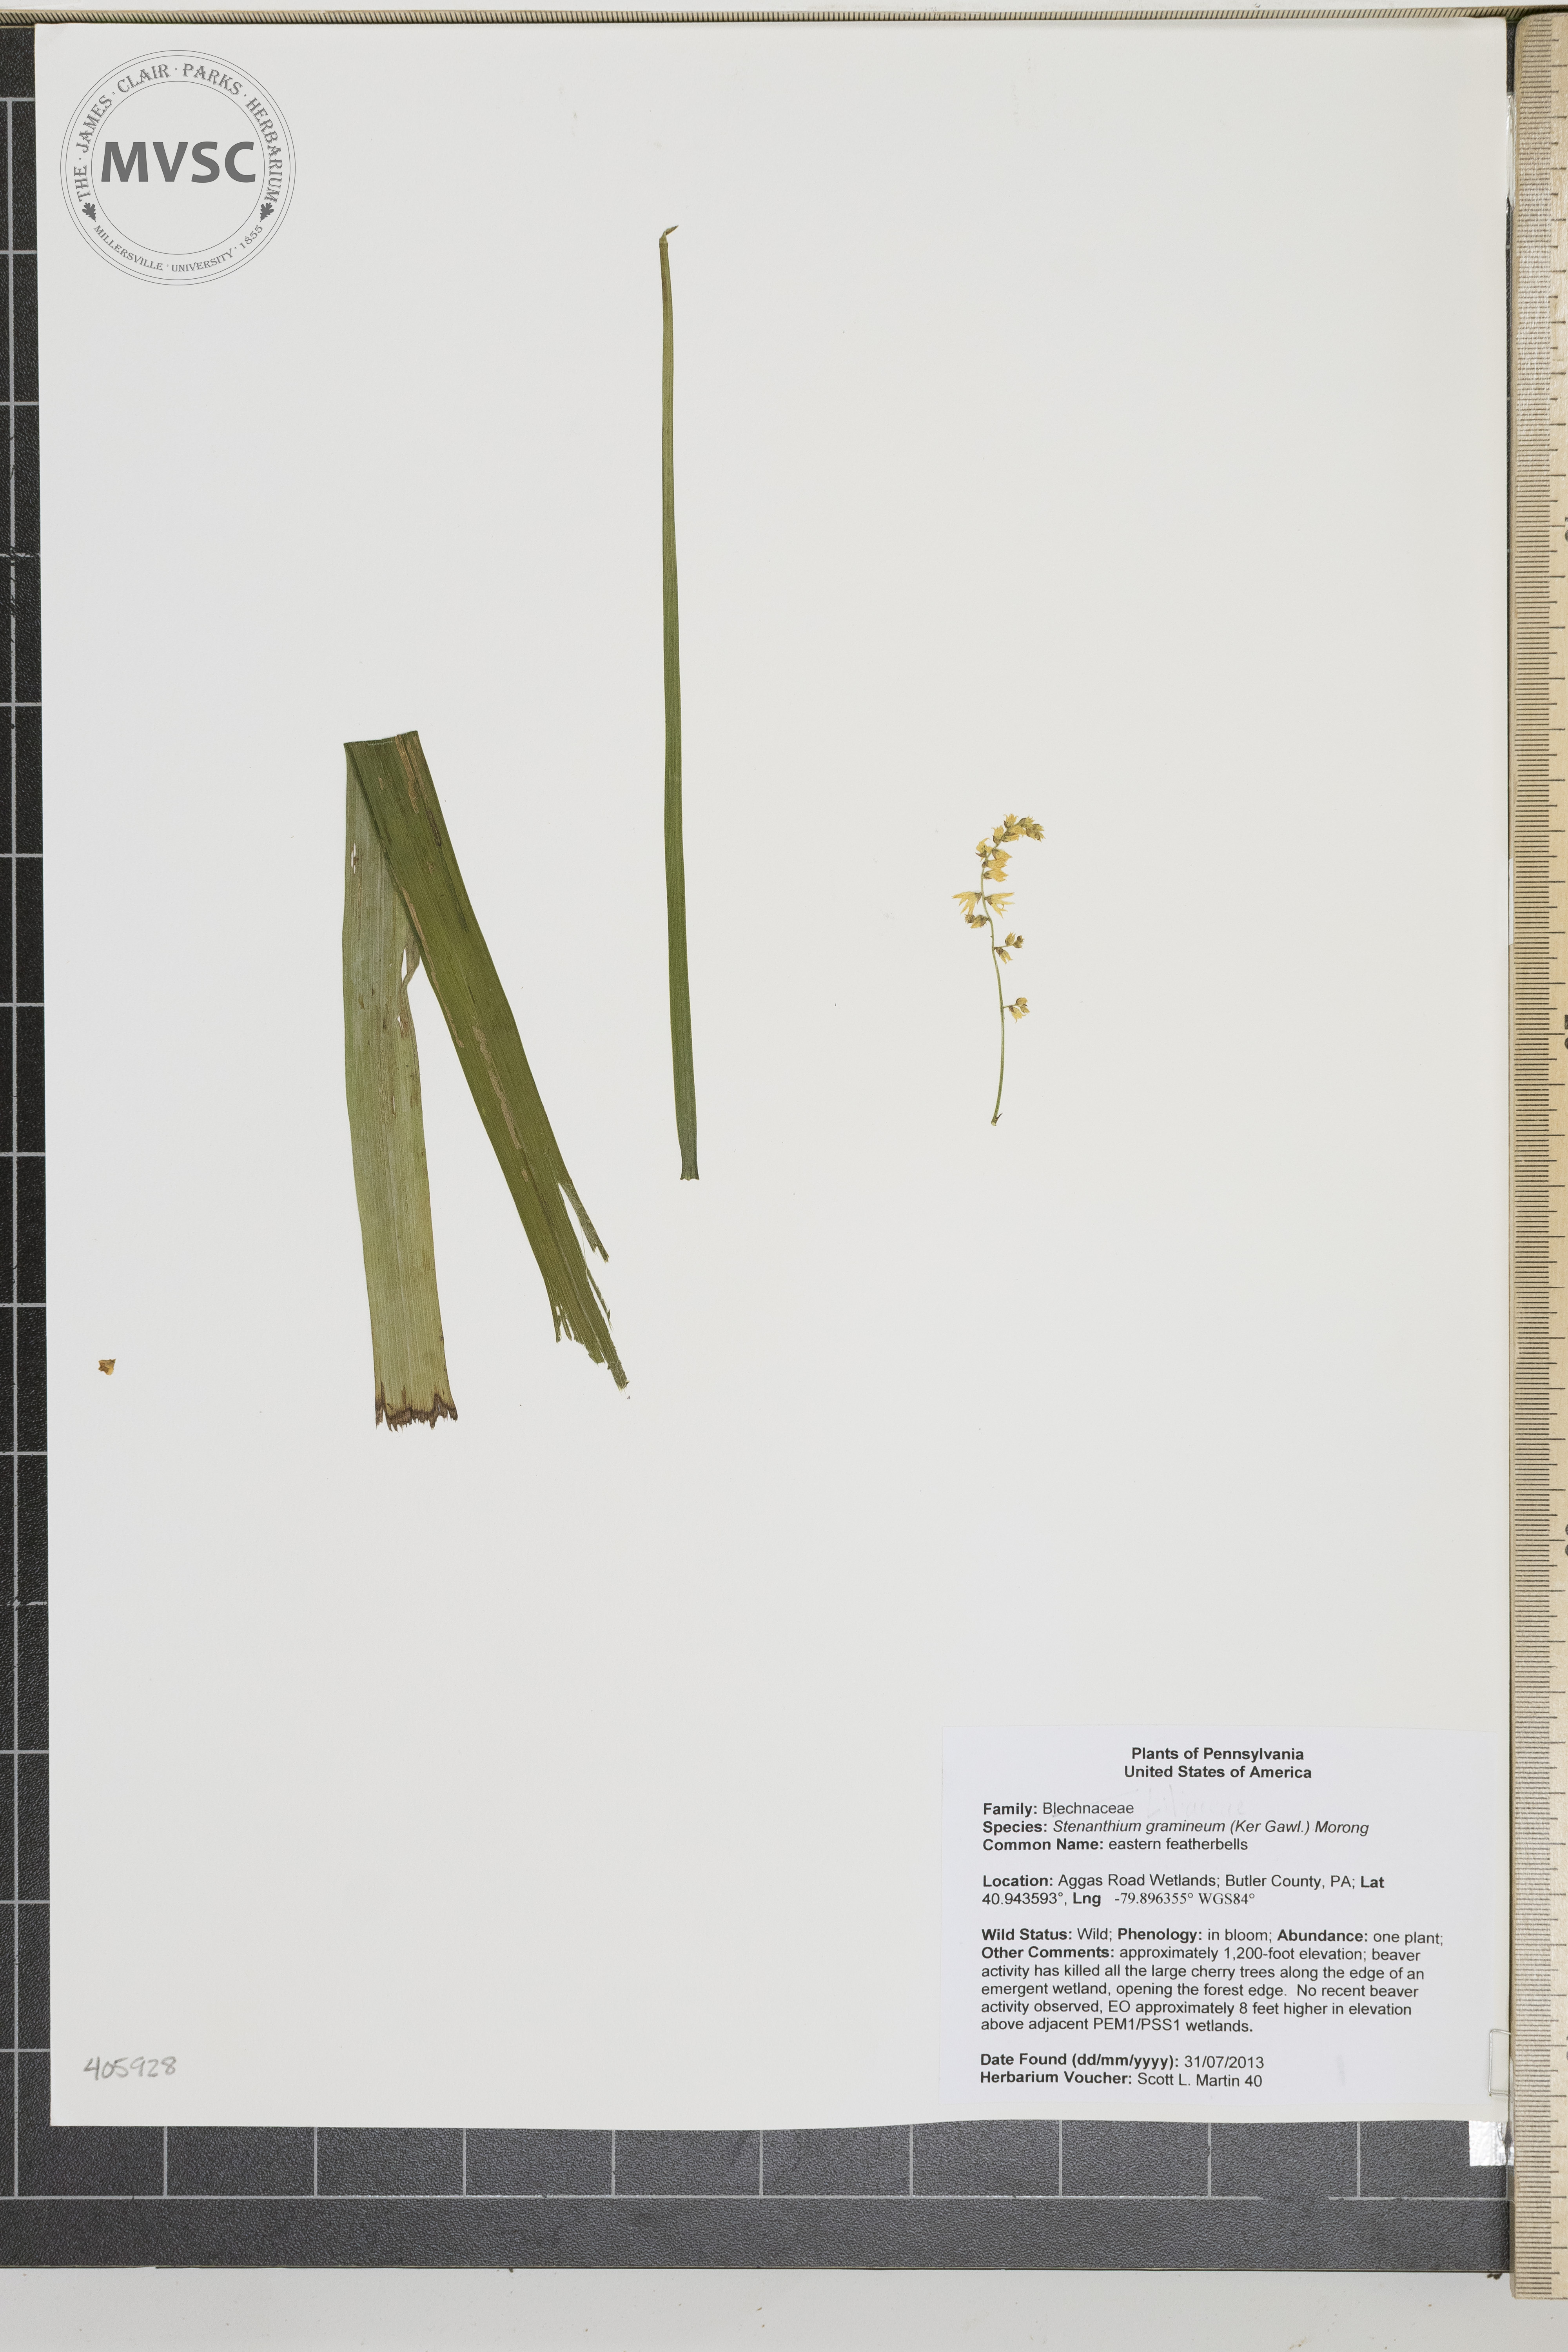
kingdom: Plantae
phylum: Tracheophyta
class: Liliopsida
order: Liliales
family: Melanthiaceae
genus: Stenanthium
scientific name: Stenanthium gramineum
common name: eastern featherbells
